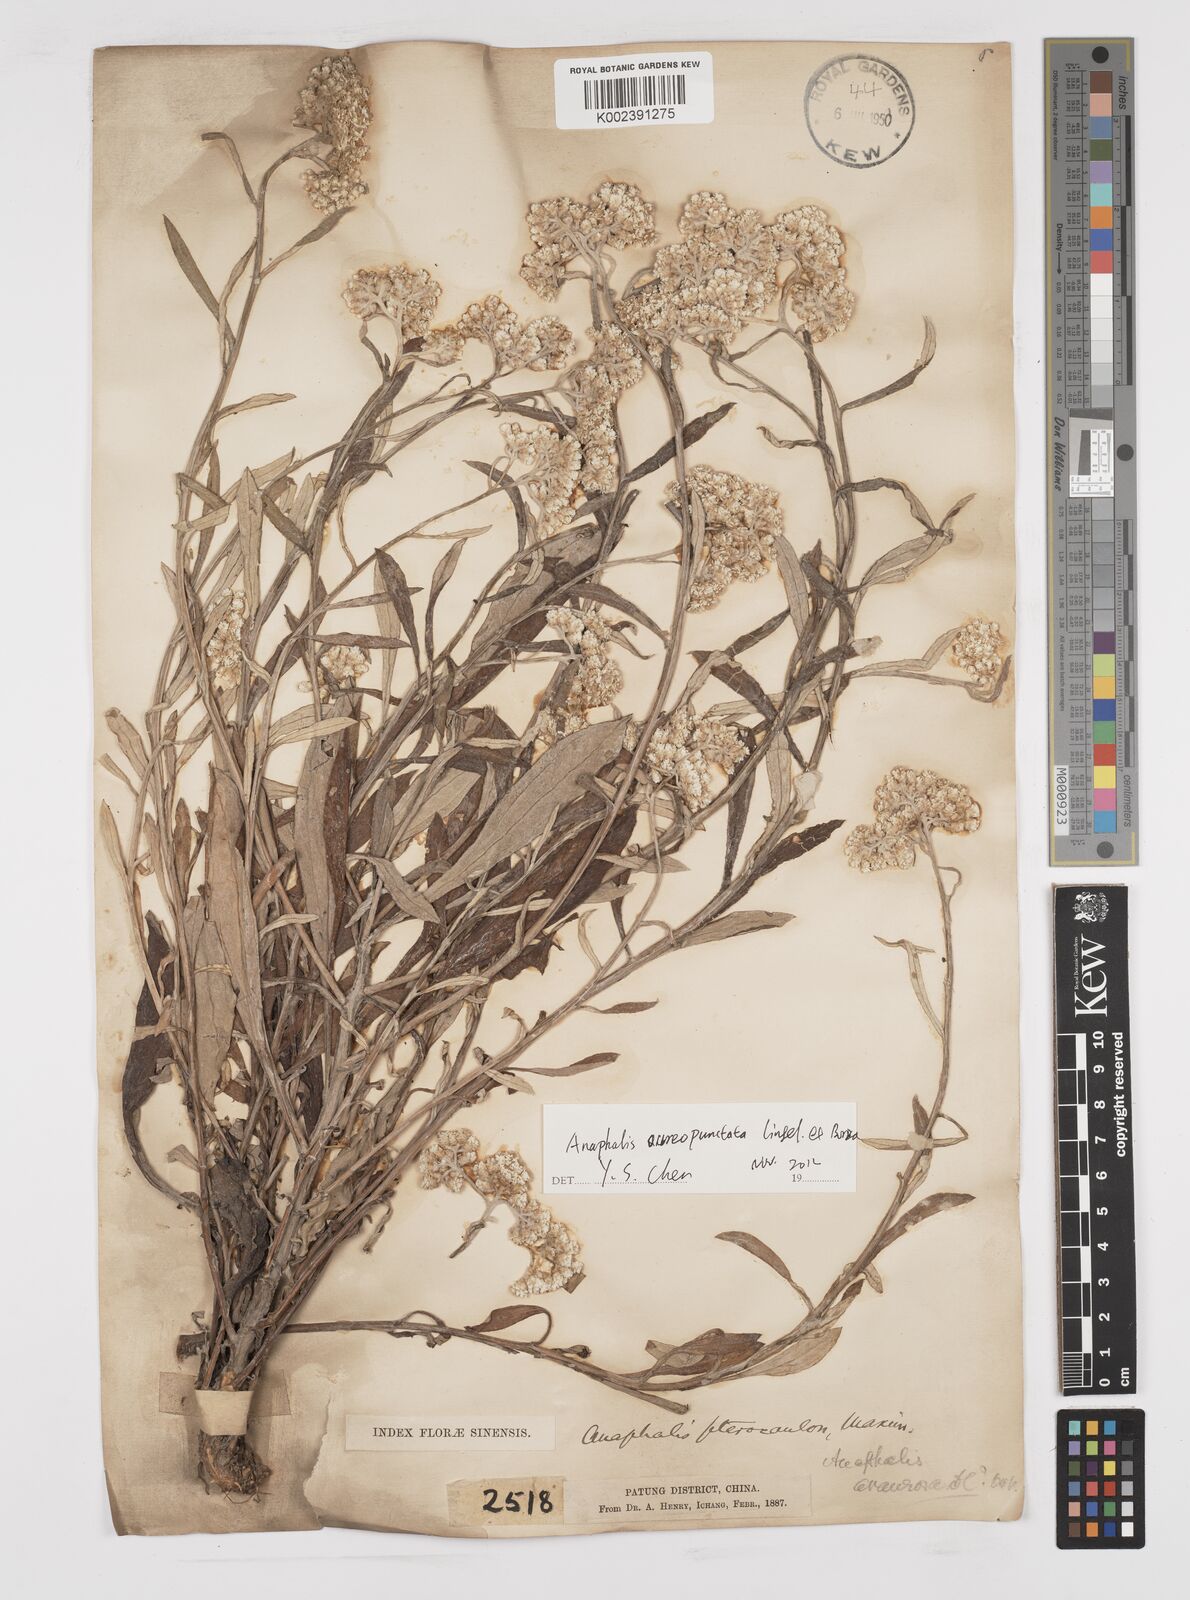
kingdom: Plantae
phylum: Tracheophyta
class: Magnoliopsida
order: Asterales
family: Asteraceae
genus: Anaphalis
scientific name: Anaphalis sinica
